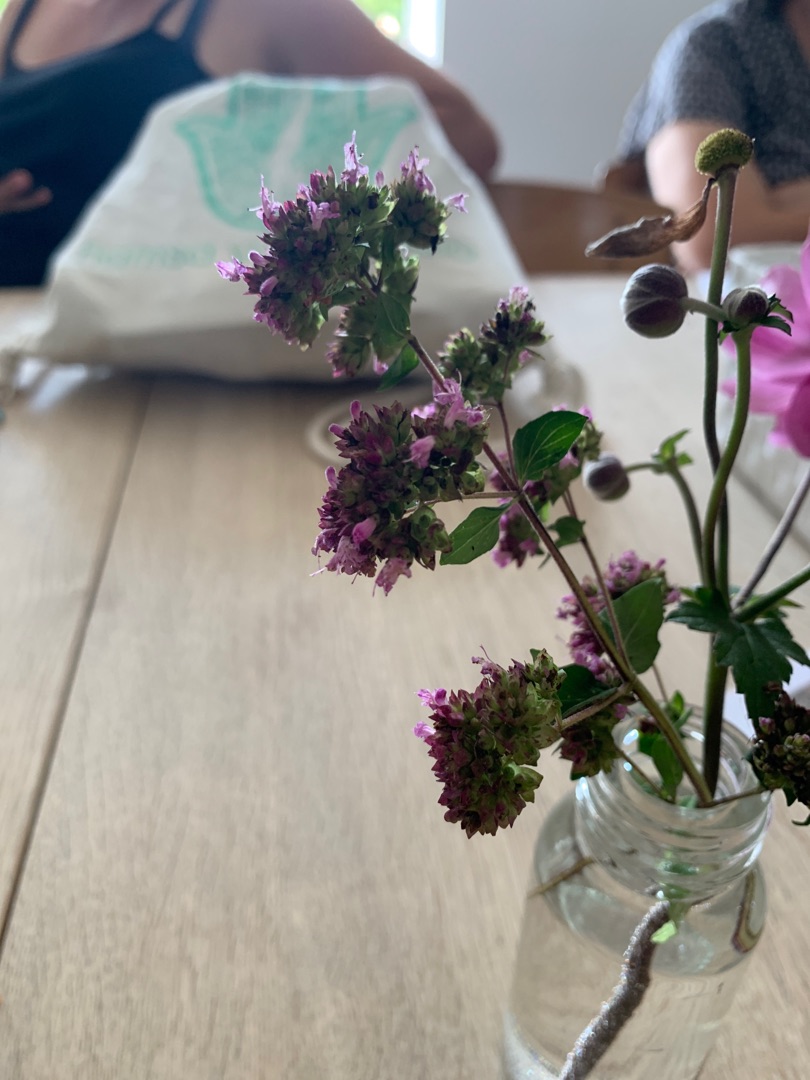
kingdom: Plantae
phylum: Tracheophyta
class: Magnoliopsida
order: Lamiales
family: Lamiaceae
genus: Origanum
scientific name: Origanum vulgare
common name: Merian
